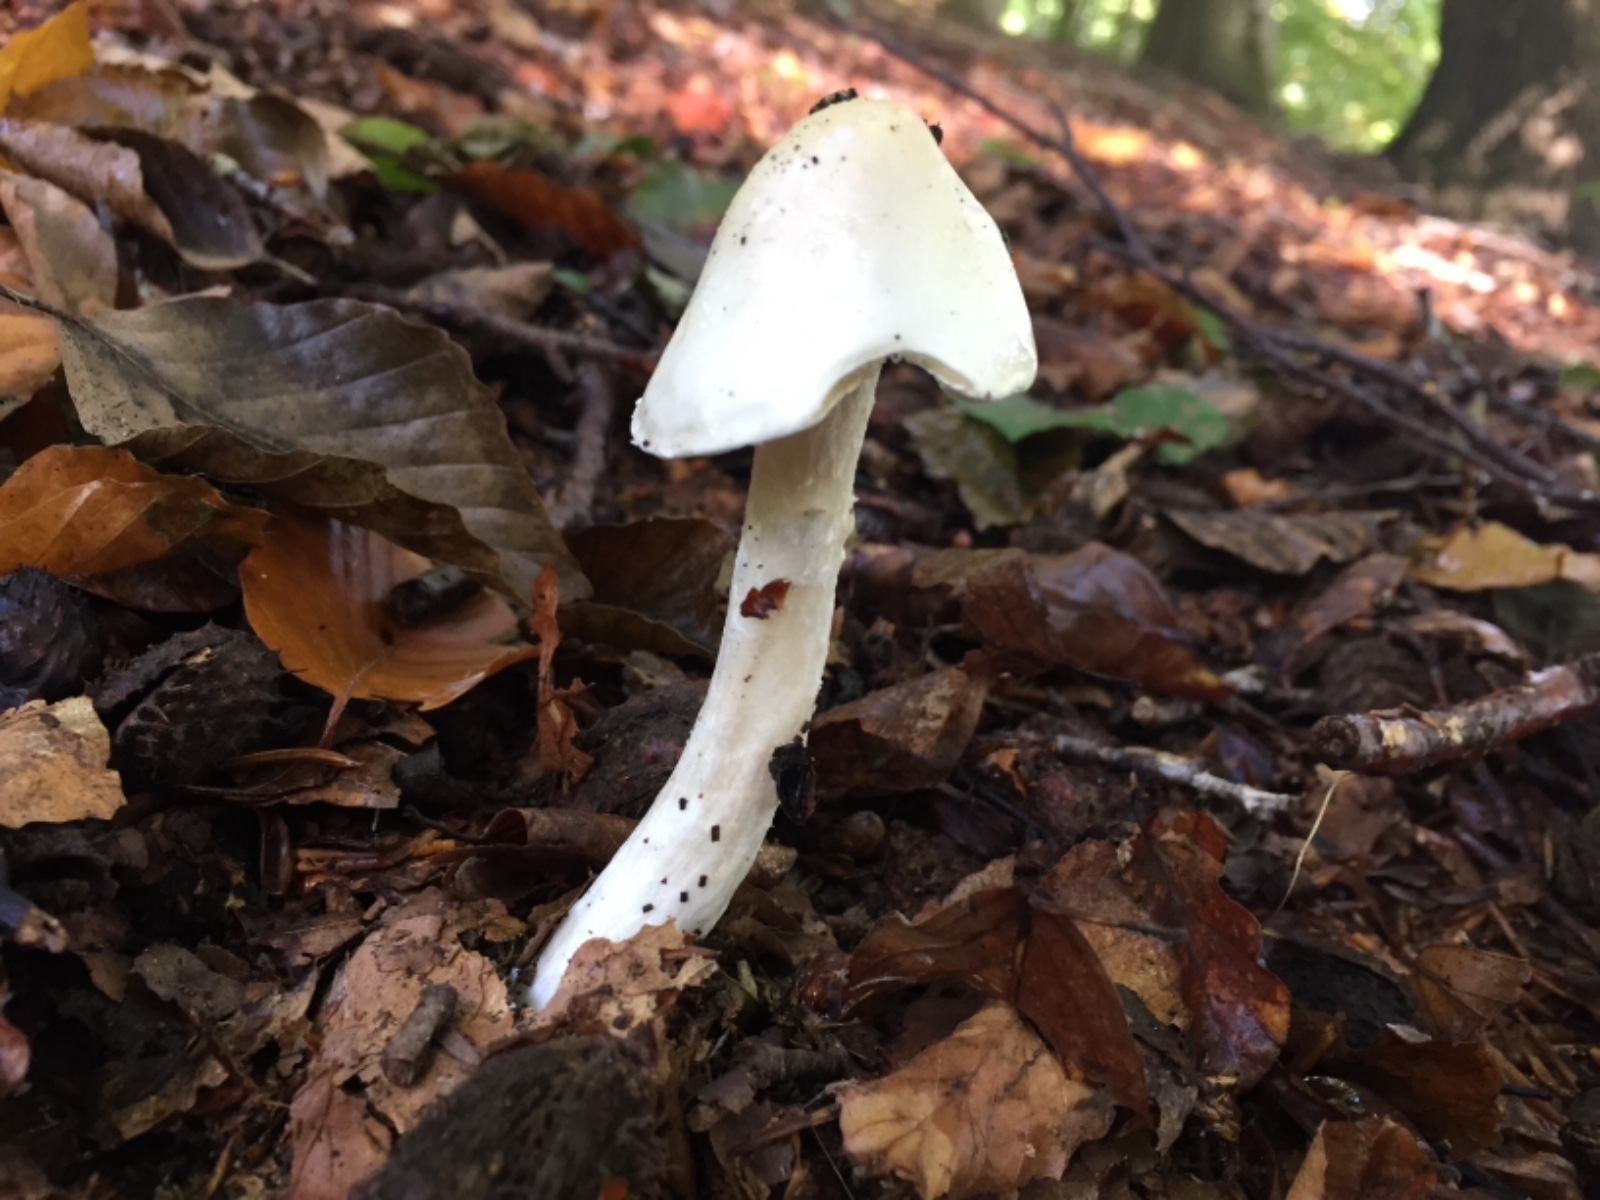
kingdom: Fungi
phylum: Basidiomycota
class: Agaricomycetes
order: Agaricales
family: Amanitaceae
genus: Amanita
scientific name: Amanita virosa
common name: snehvid fluesvamp
